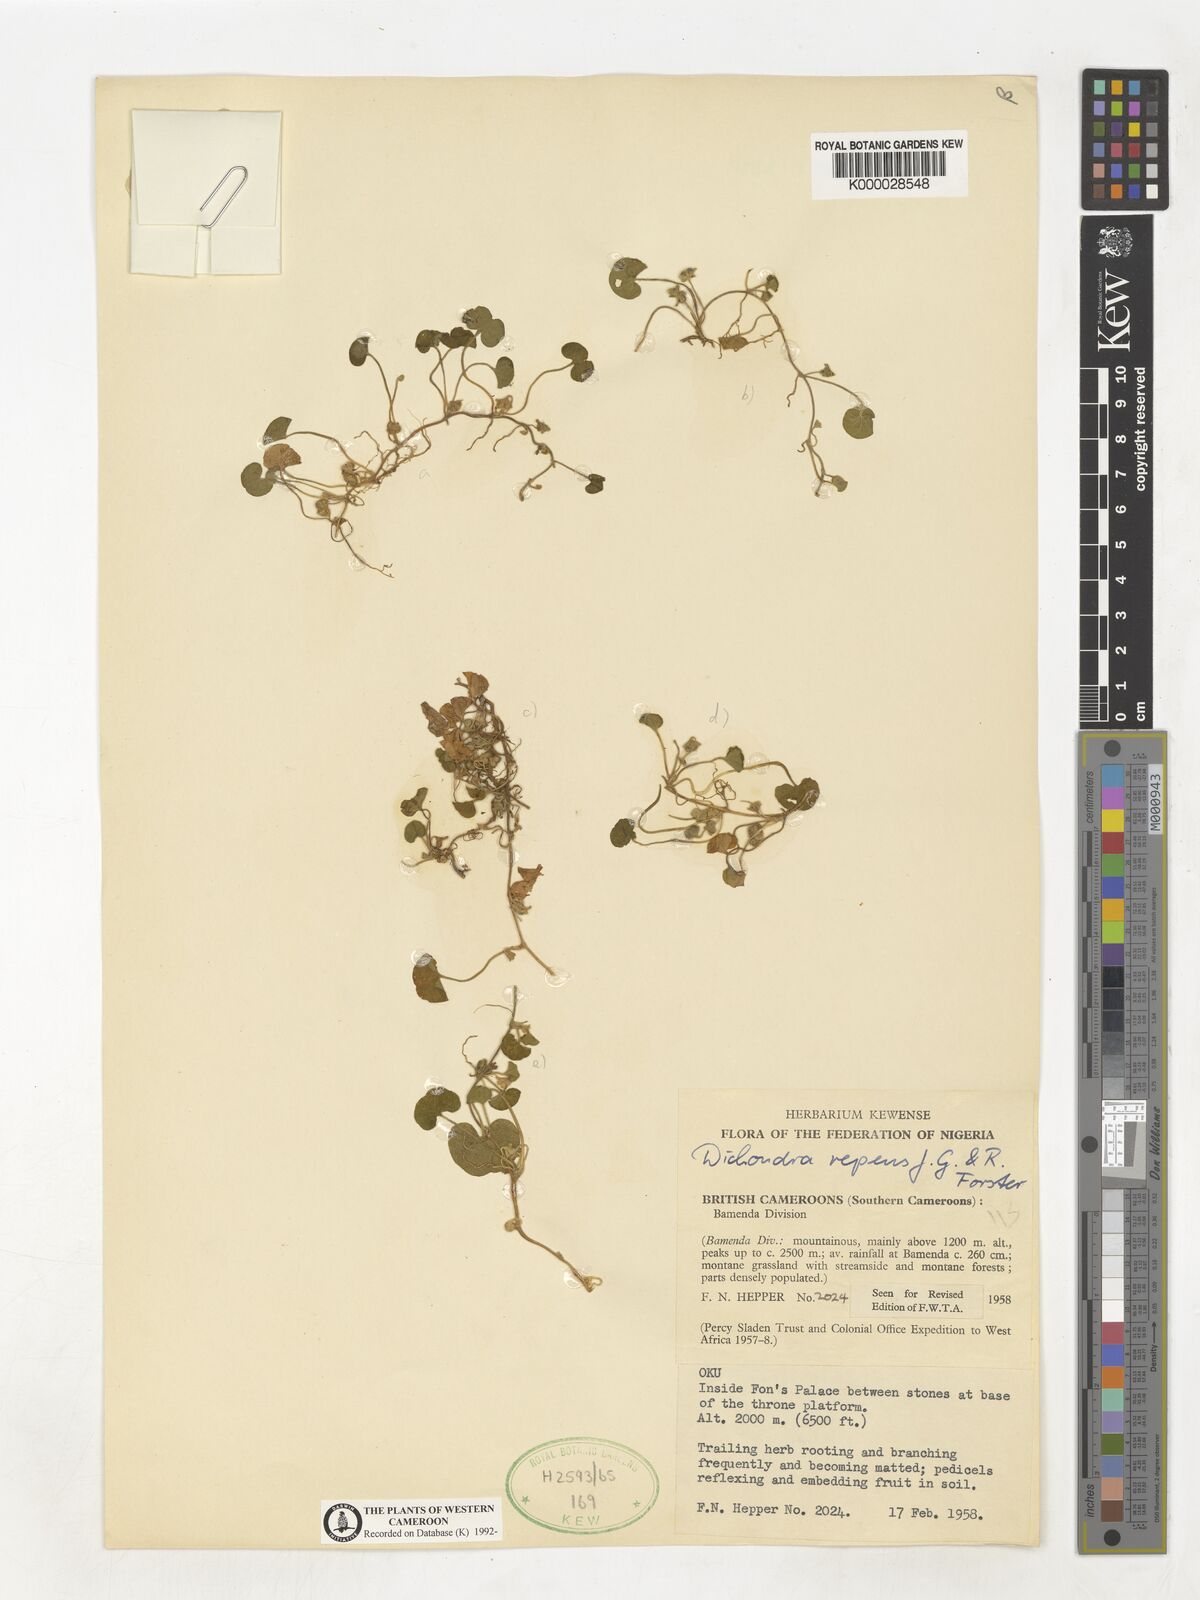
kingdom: Plantae
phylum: Tracheophyta
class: Magnoliopsida
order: Solanales
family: Convolvulaceae
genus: Dichondra
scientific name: Dichondra repens
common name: Kidneyweed
